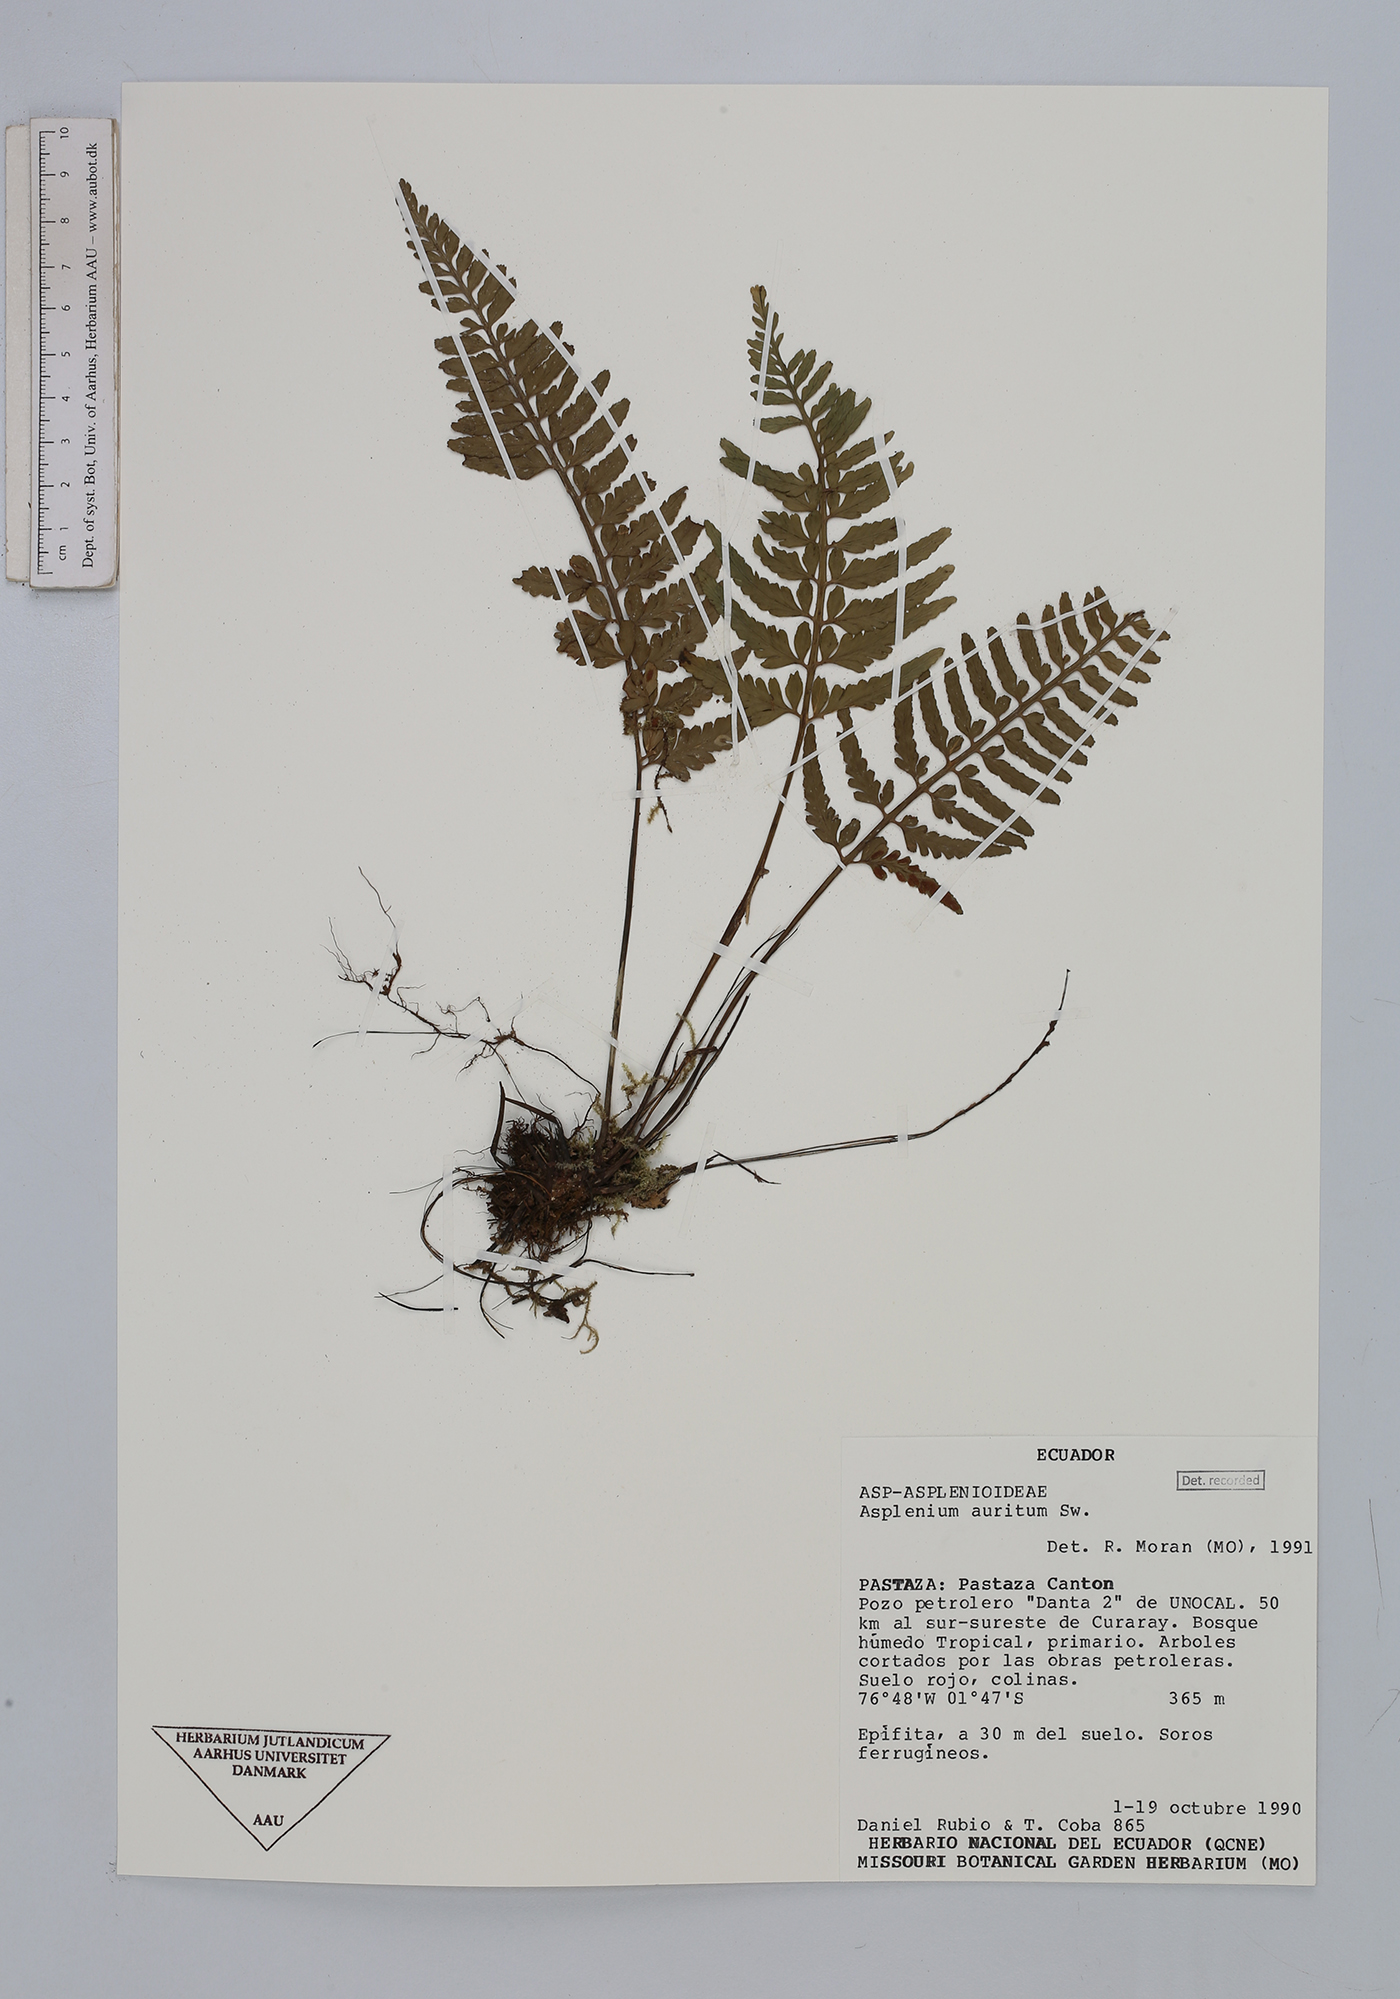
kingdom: Plantae
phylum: Tracheophyta
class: Polypodiopsida
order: Polypodiales
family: Aspleniaceae
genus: Asplenium
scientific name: Asplenium auritum
